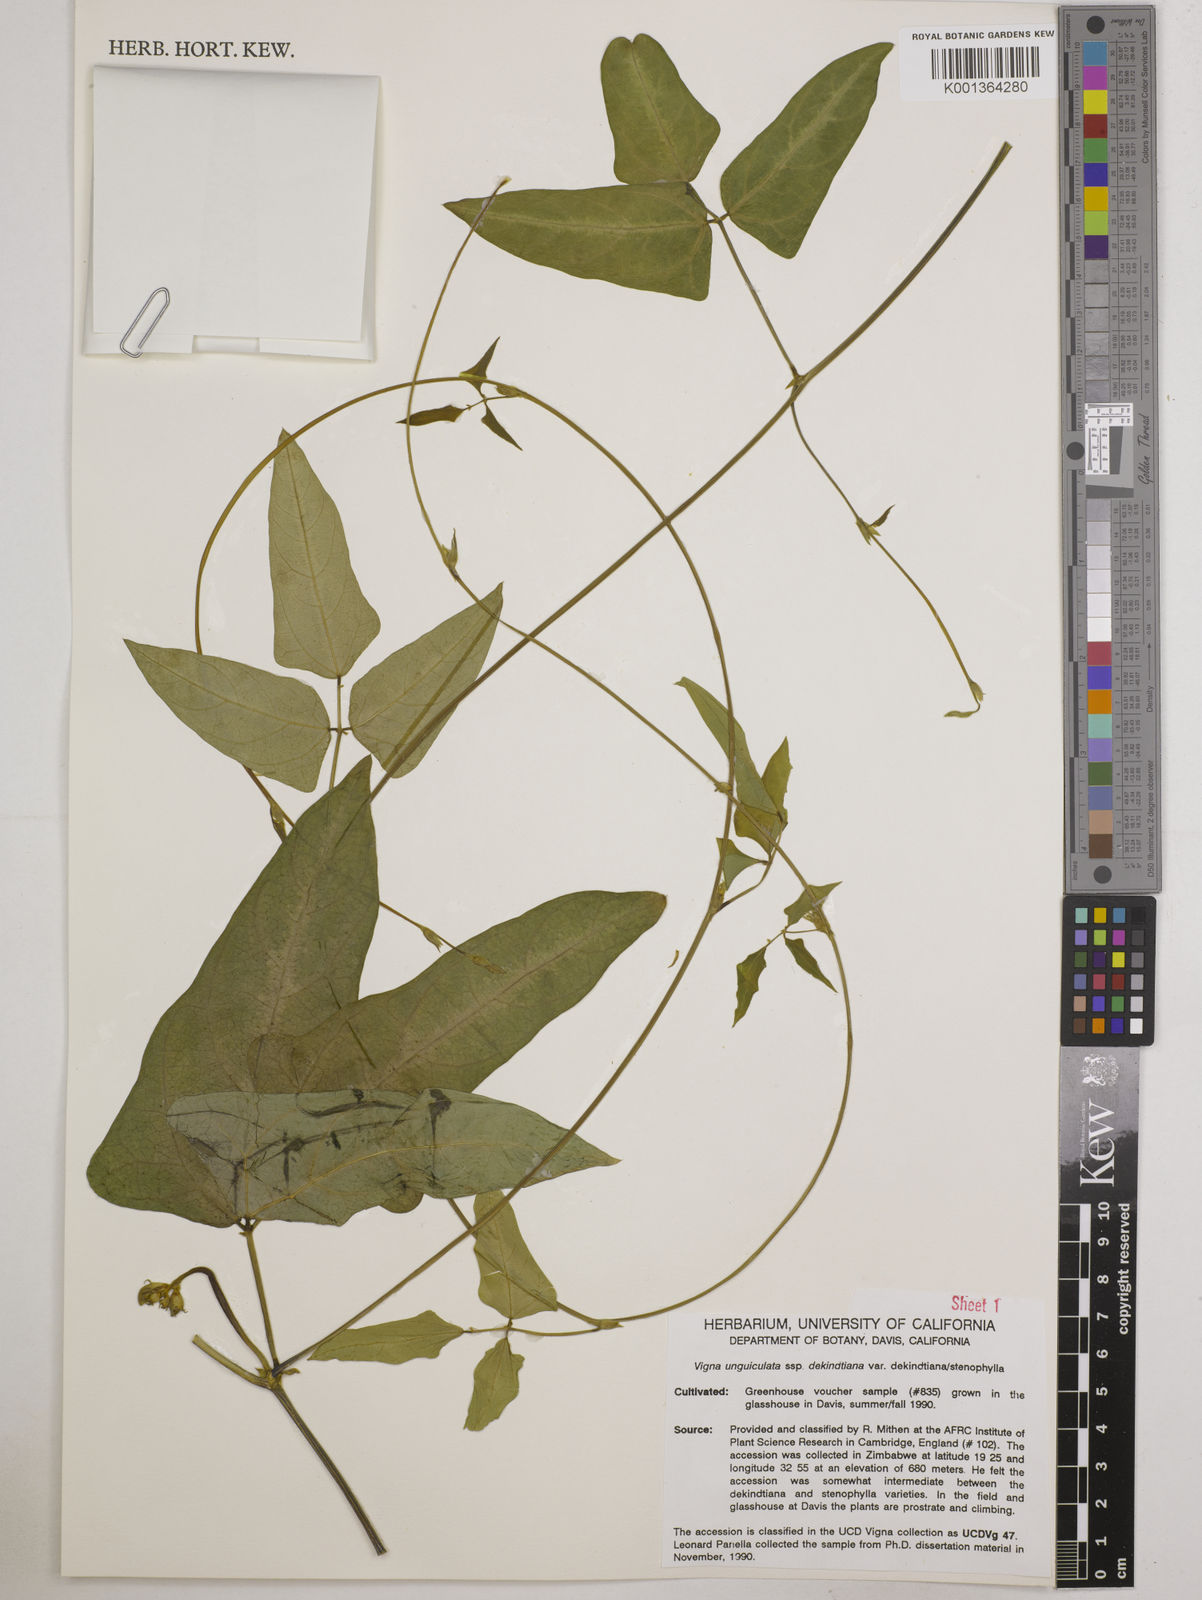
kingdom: Plantae
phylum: Tracheophyta
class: Magnoliopsida
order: Fabales
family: Fabaceae
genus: Vigna
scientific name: Vigna
